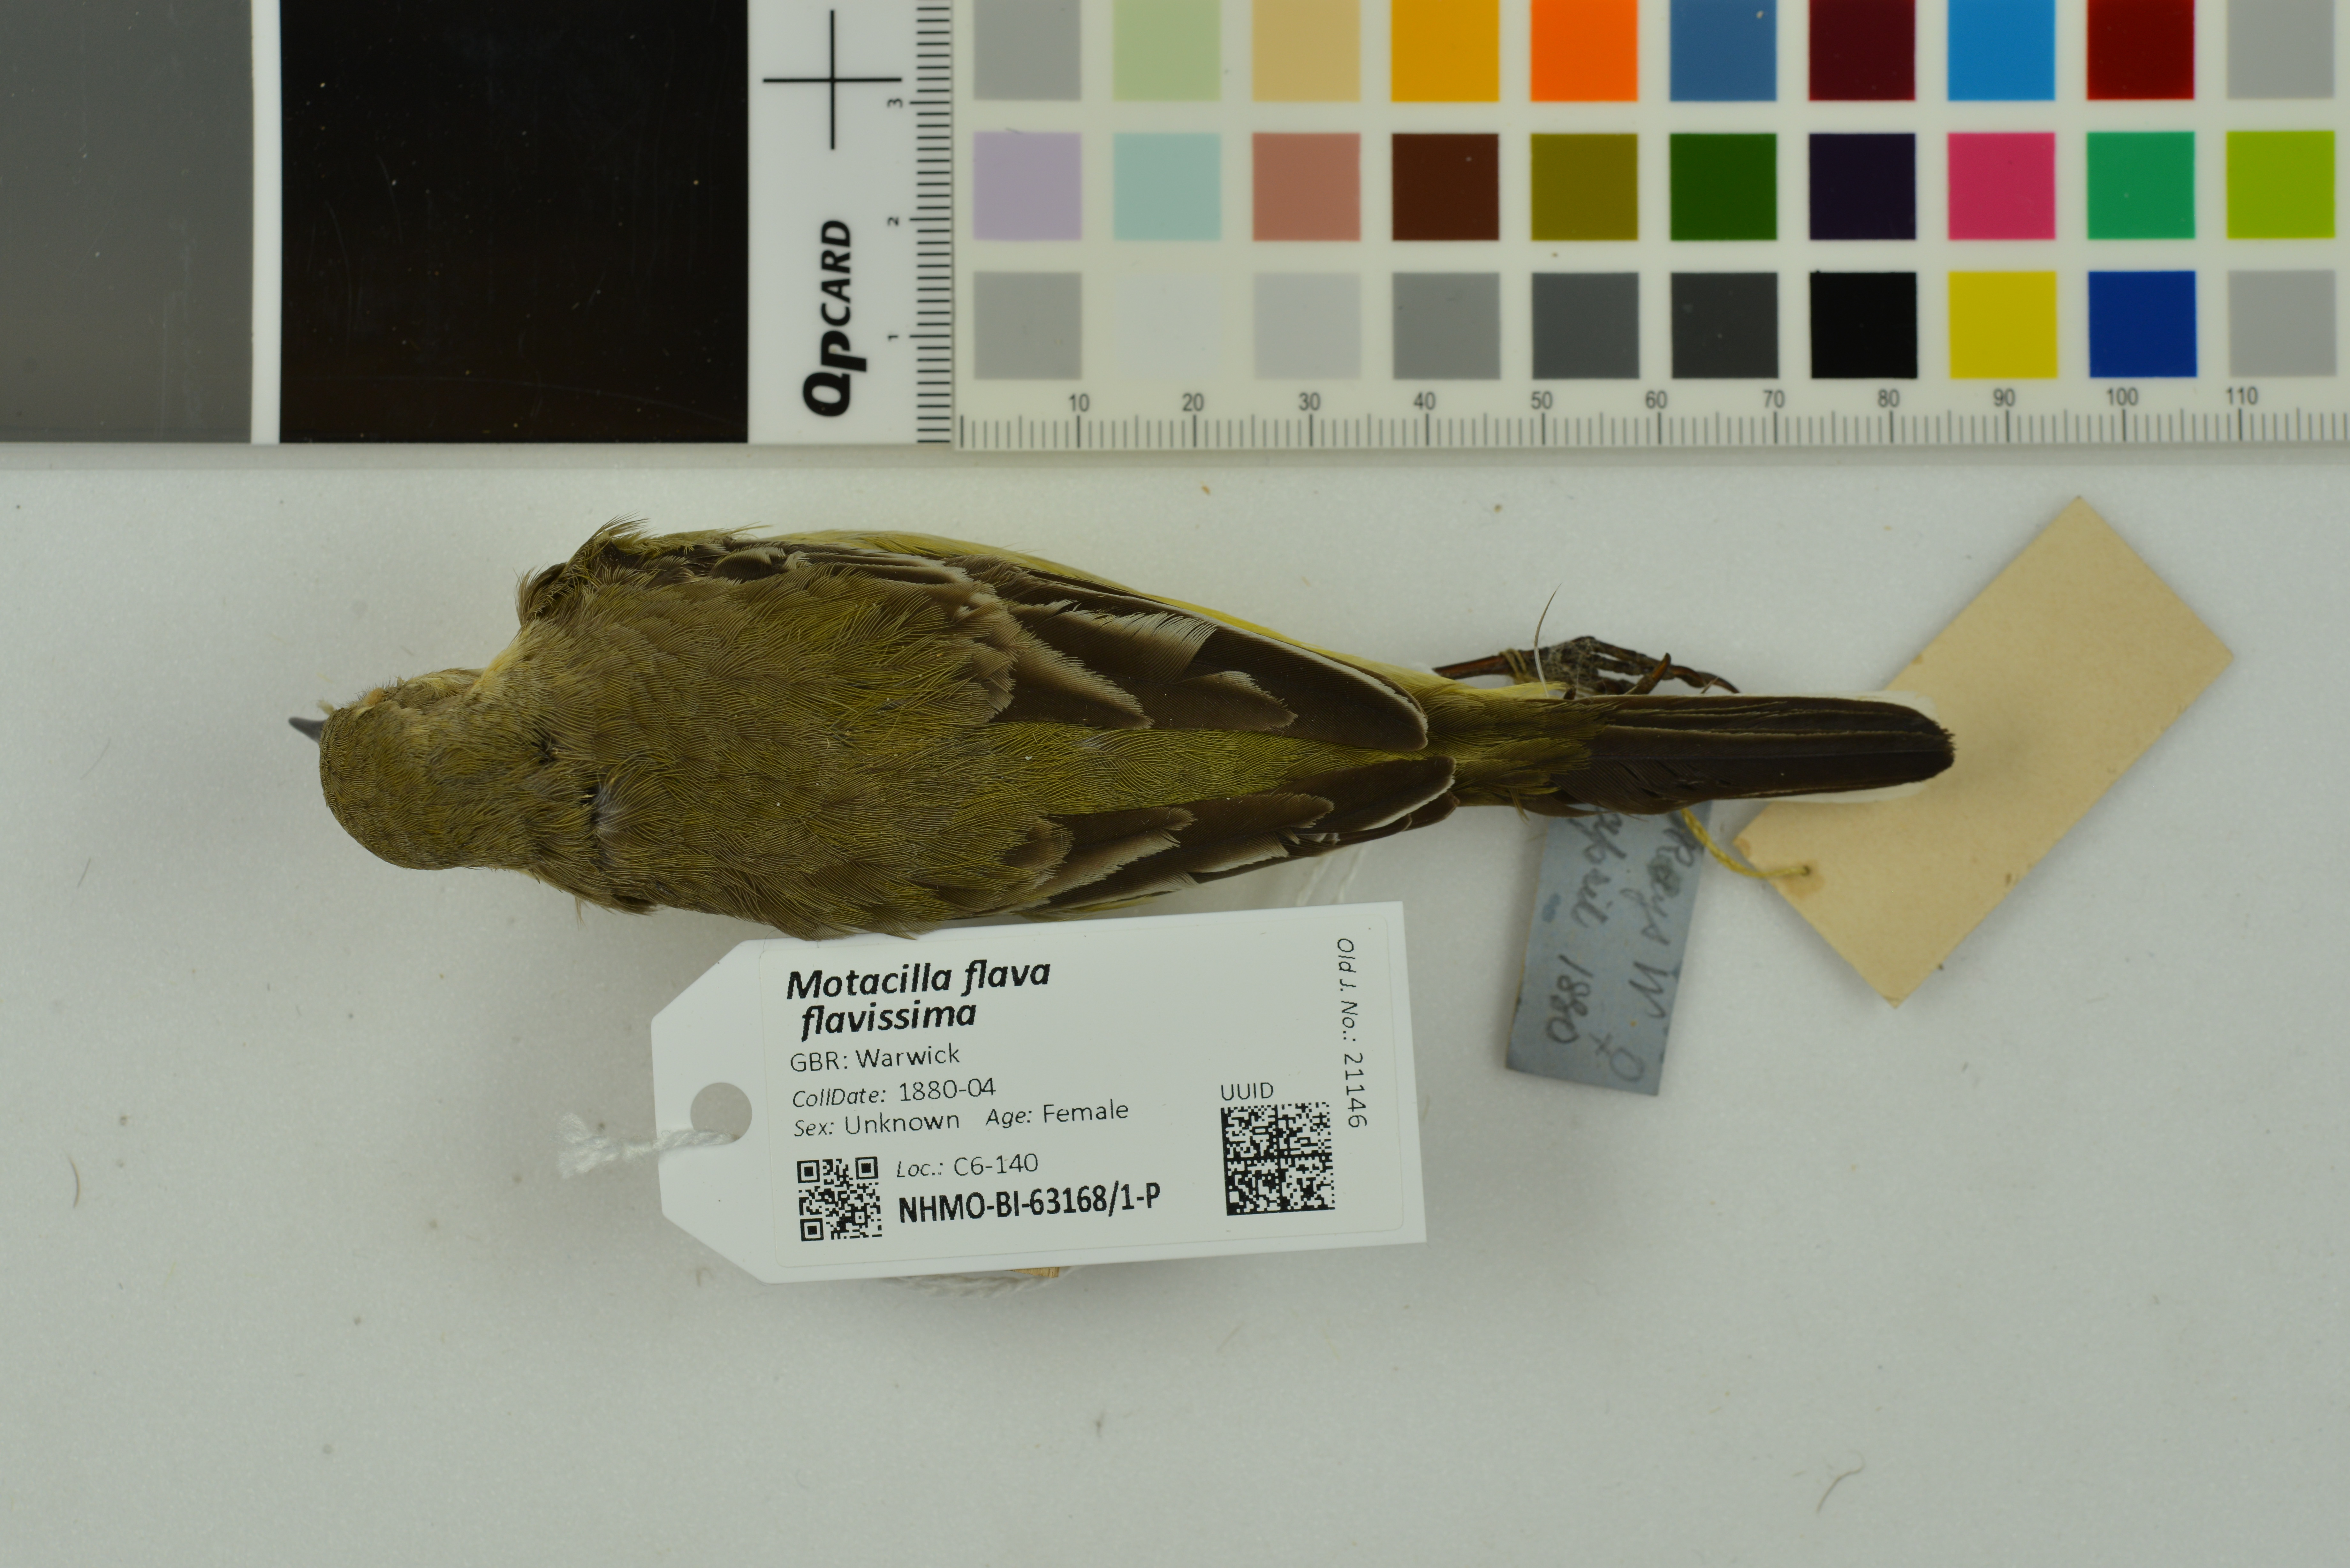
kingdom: Animalia
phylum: Chordata
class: Aves
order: Passeriformes
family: Motacillidae
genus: Motacilla
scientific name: Motacilla flava
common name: Western yellow wagtail
